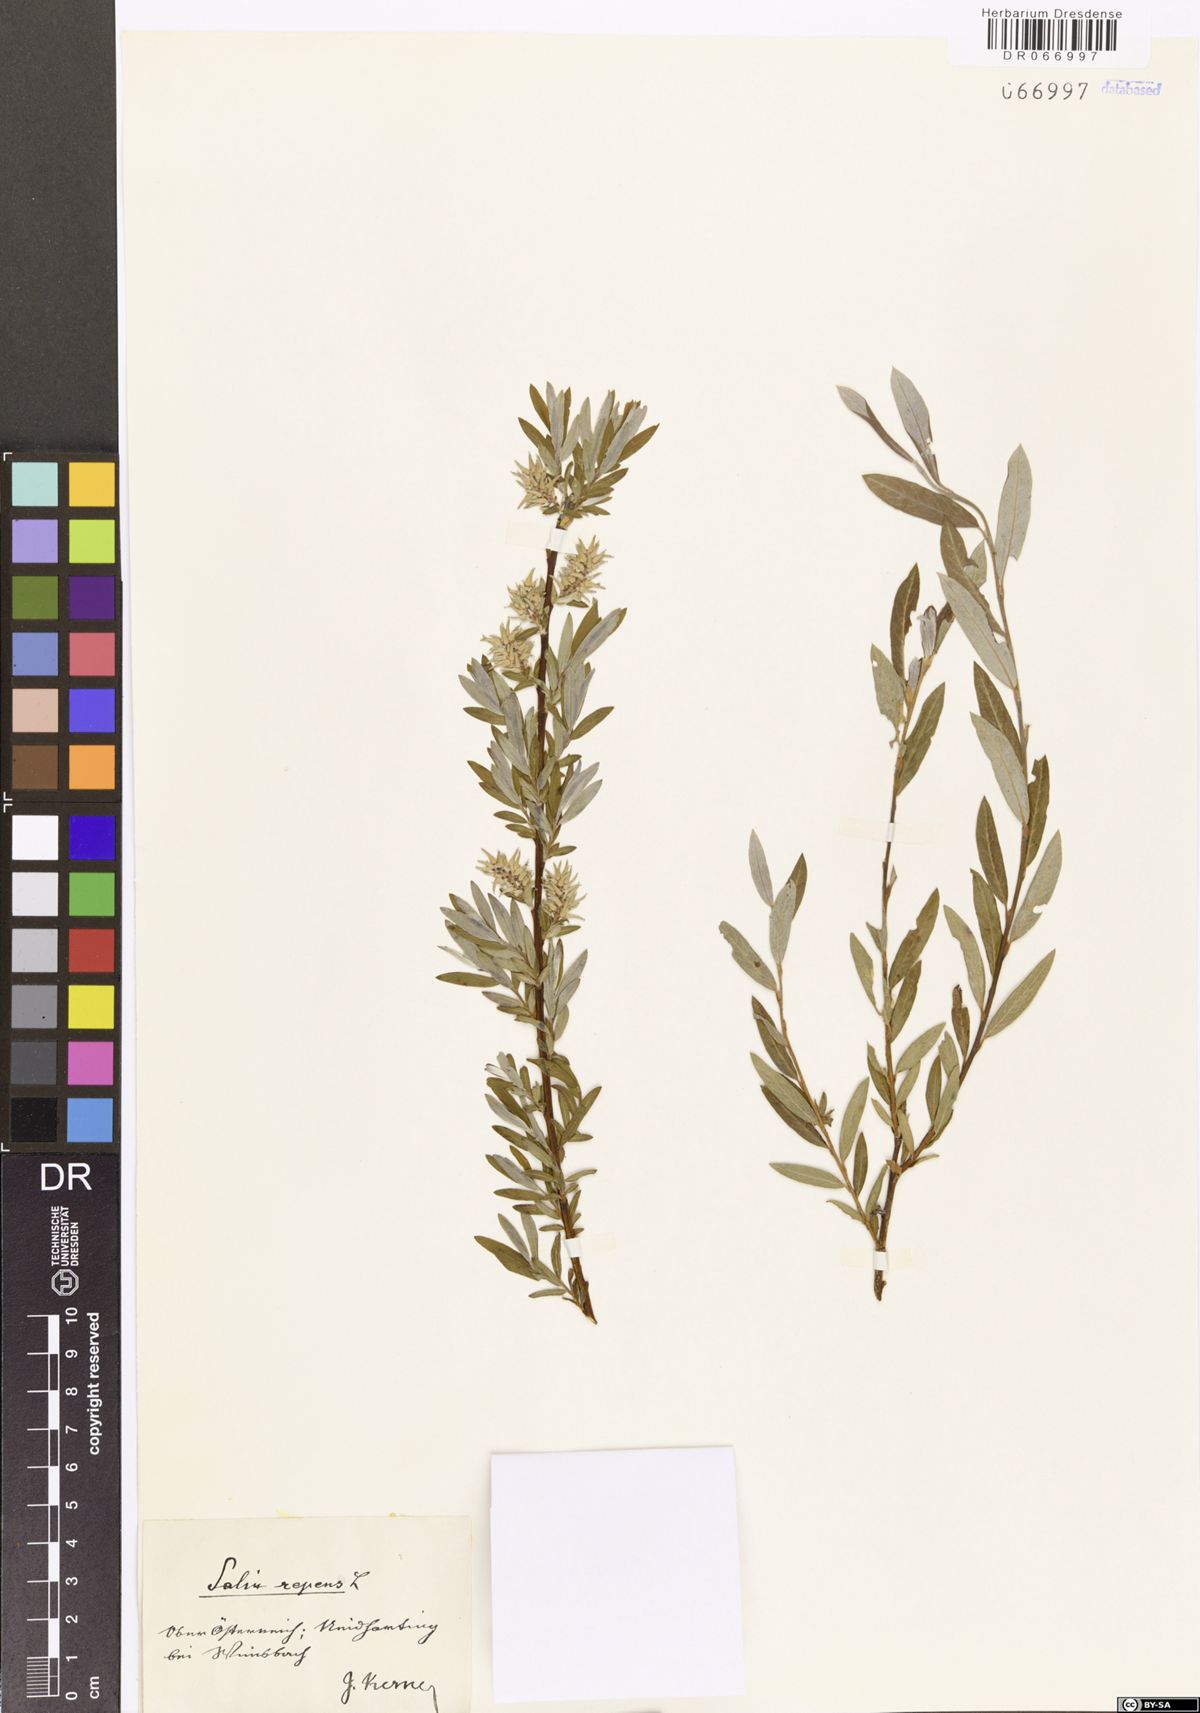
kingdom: Plantae
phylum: Tracheophyta
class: Magnoliopsida
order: Malpighiales
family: Salicaceae
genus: Salix
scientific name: Salix repens
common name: Creeping willow
